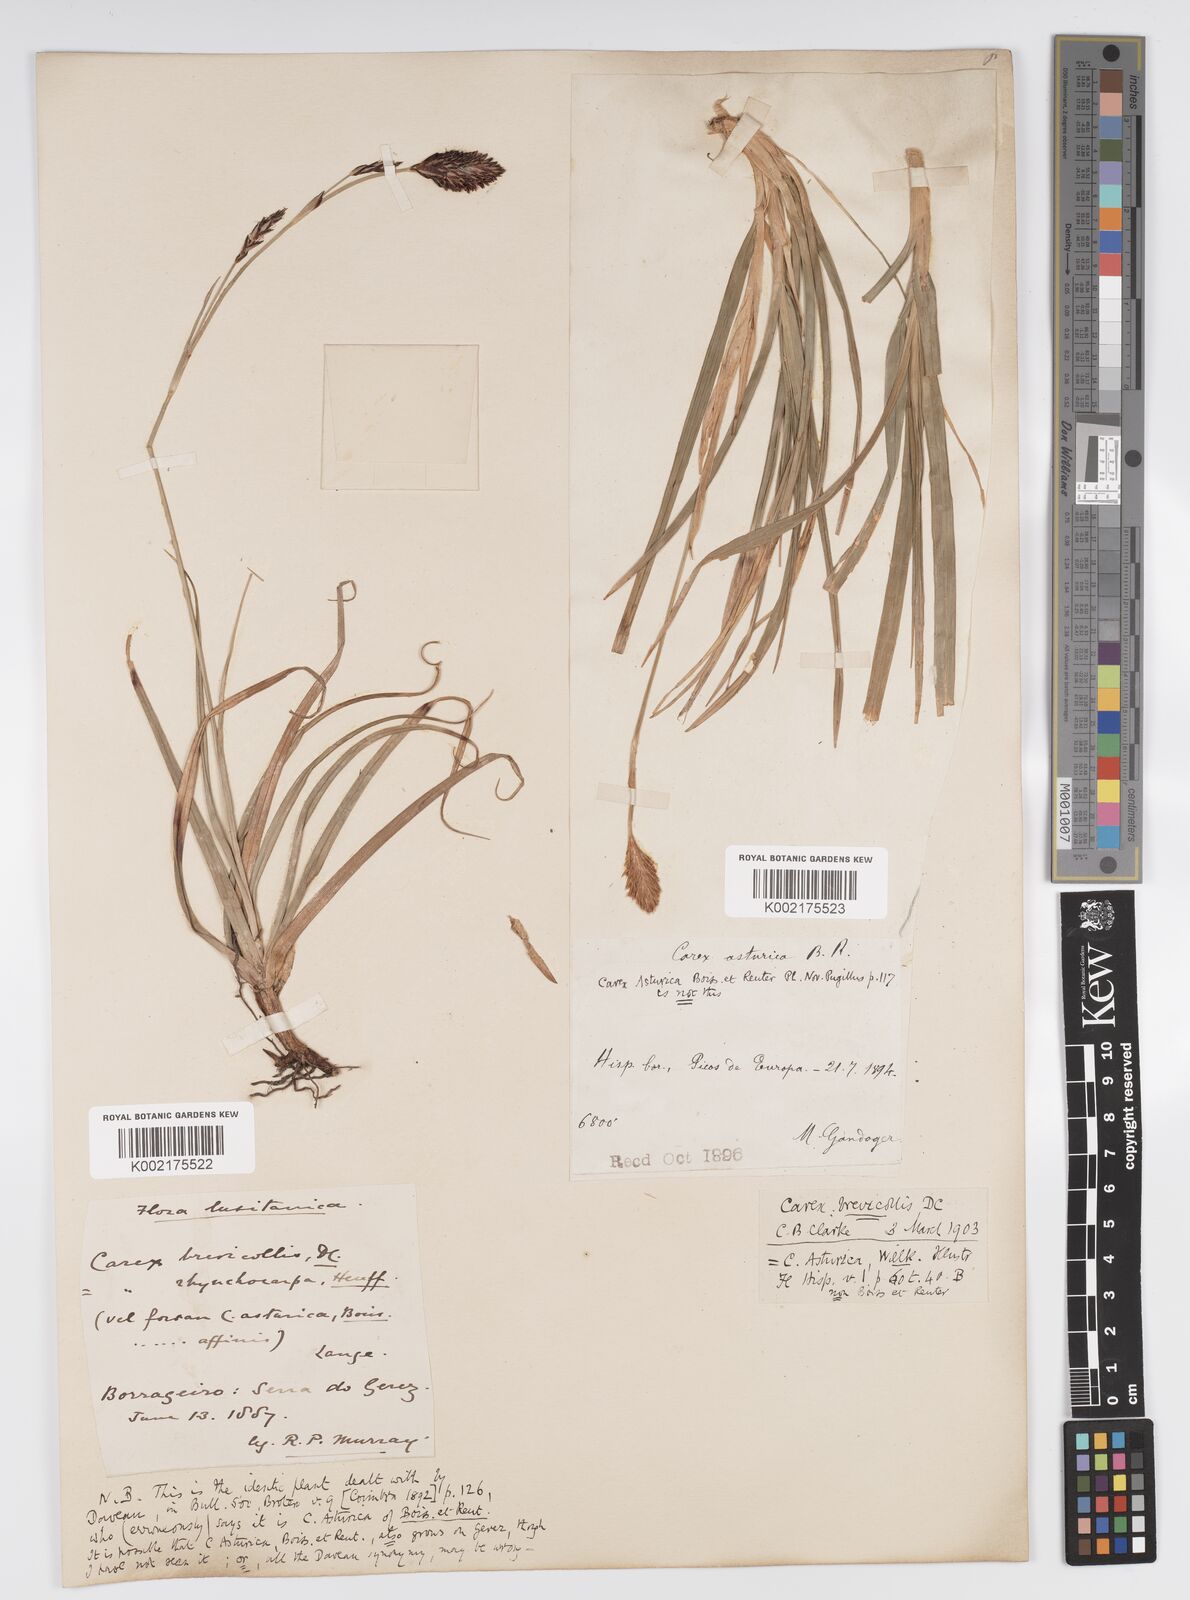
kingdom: Plantae
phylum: Tracheophyta
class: Liliopsida
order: Poales
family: Cyperaceae
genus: Carex
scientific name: Carex brevicollis
